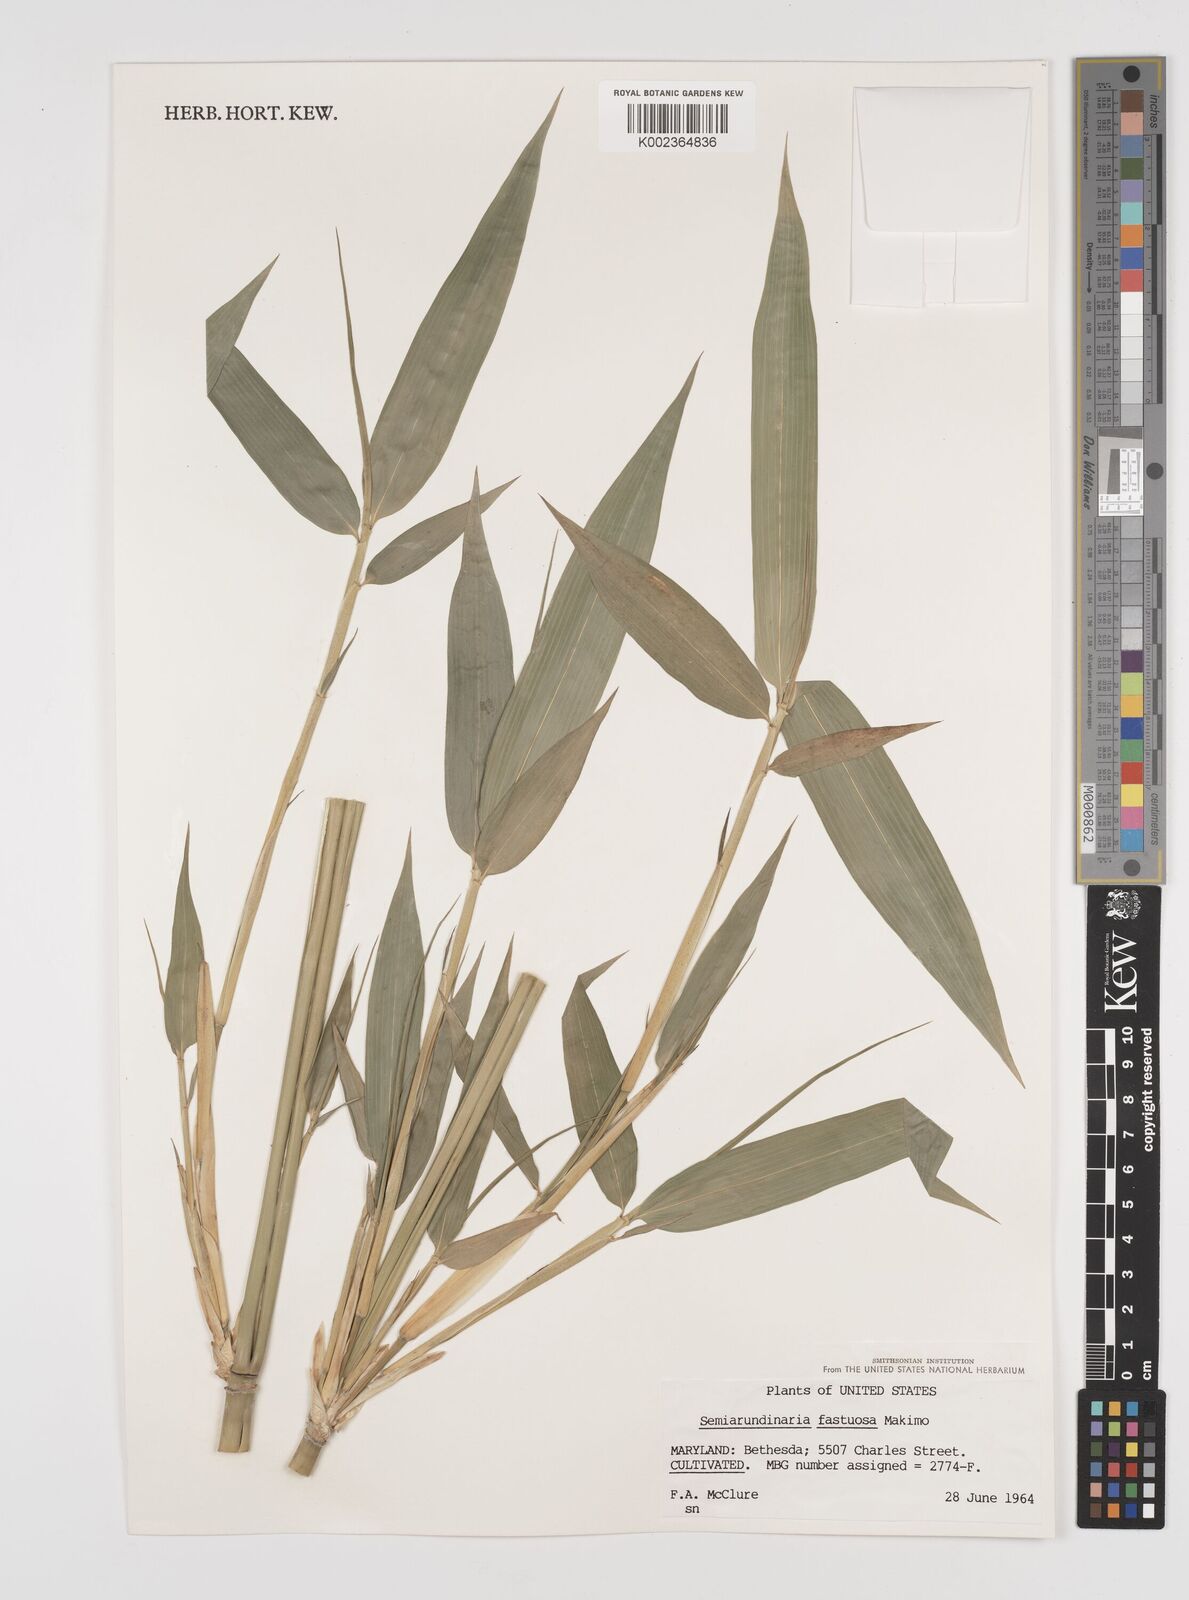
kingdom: Plantae
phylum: Tracheophyta
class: Liliopsida
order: Poales
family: Poaceae
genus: Semiarundinaria
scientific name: Semiarundinaria fastuosa
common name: Narihira bamboo
